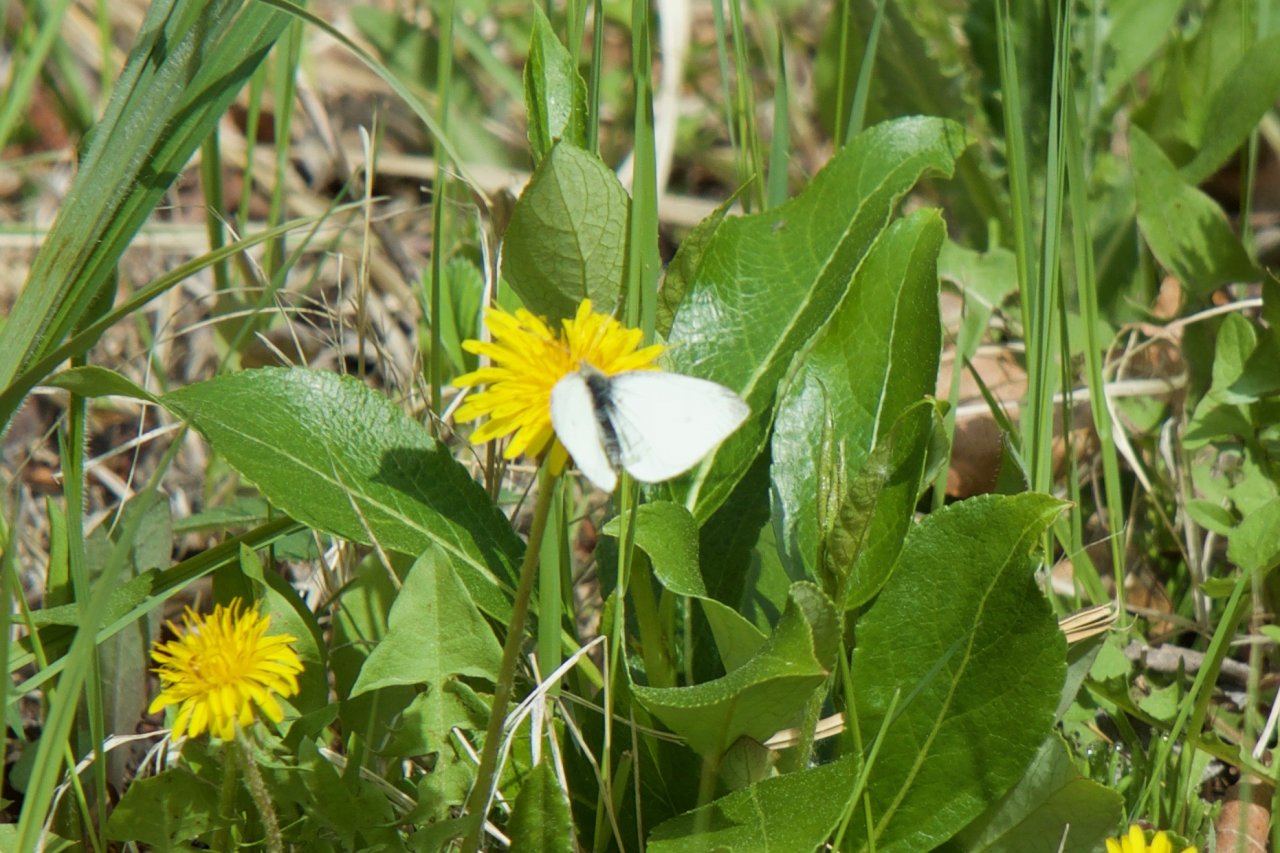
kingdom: Animalia
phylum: Arthropoda
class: Insecta
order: Lepidoptera
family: Pieridae
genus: Pieris
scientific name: Pieris rapae
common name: Cabbage White
